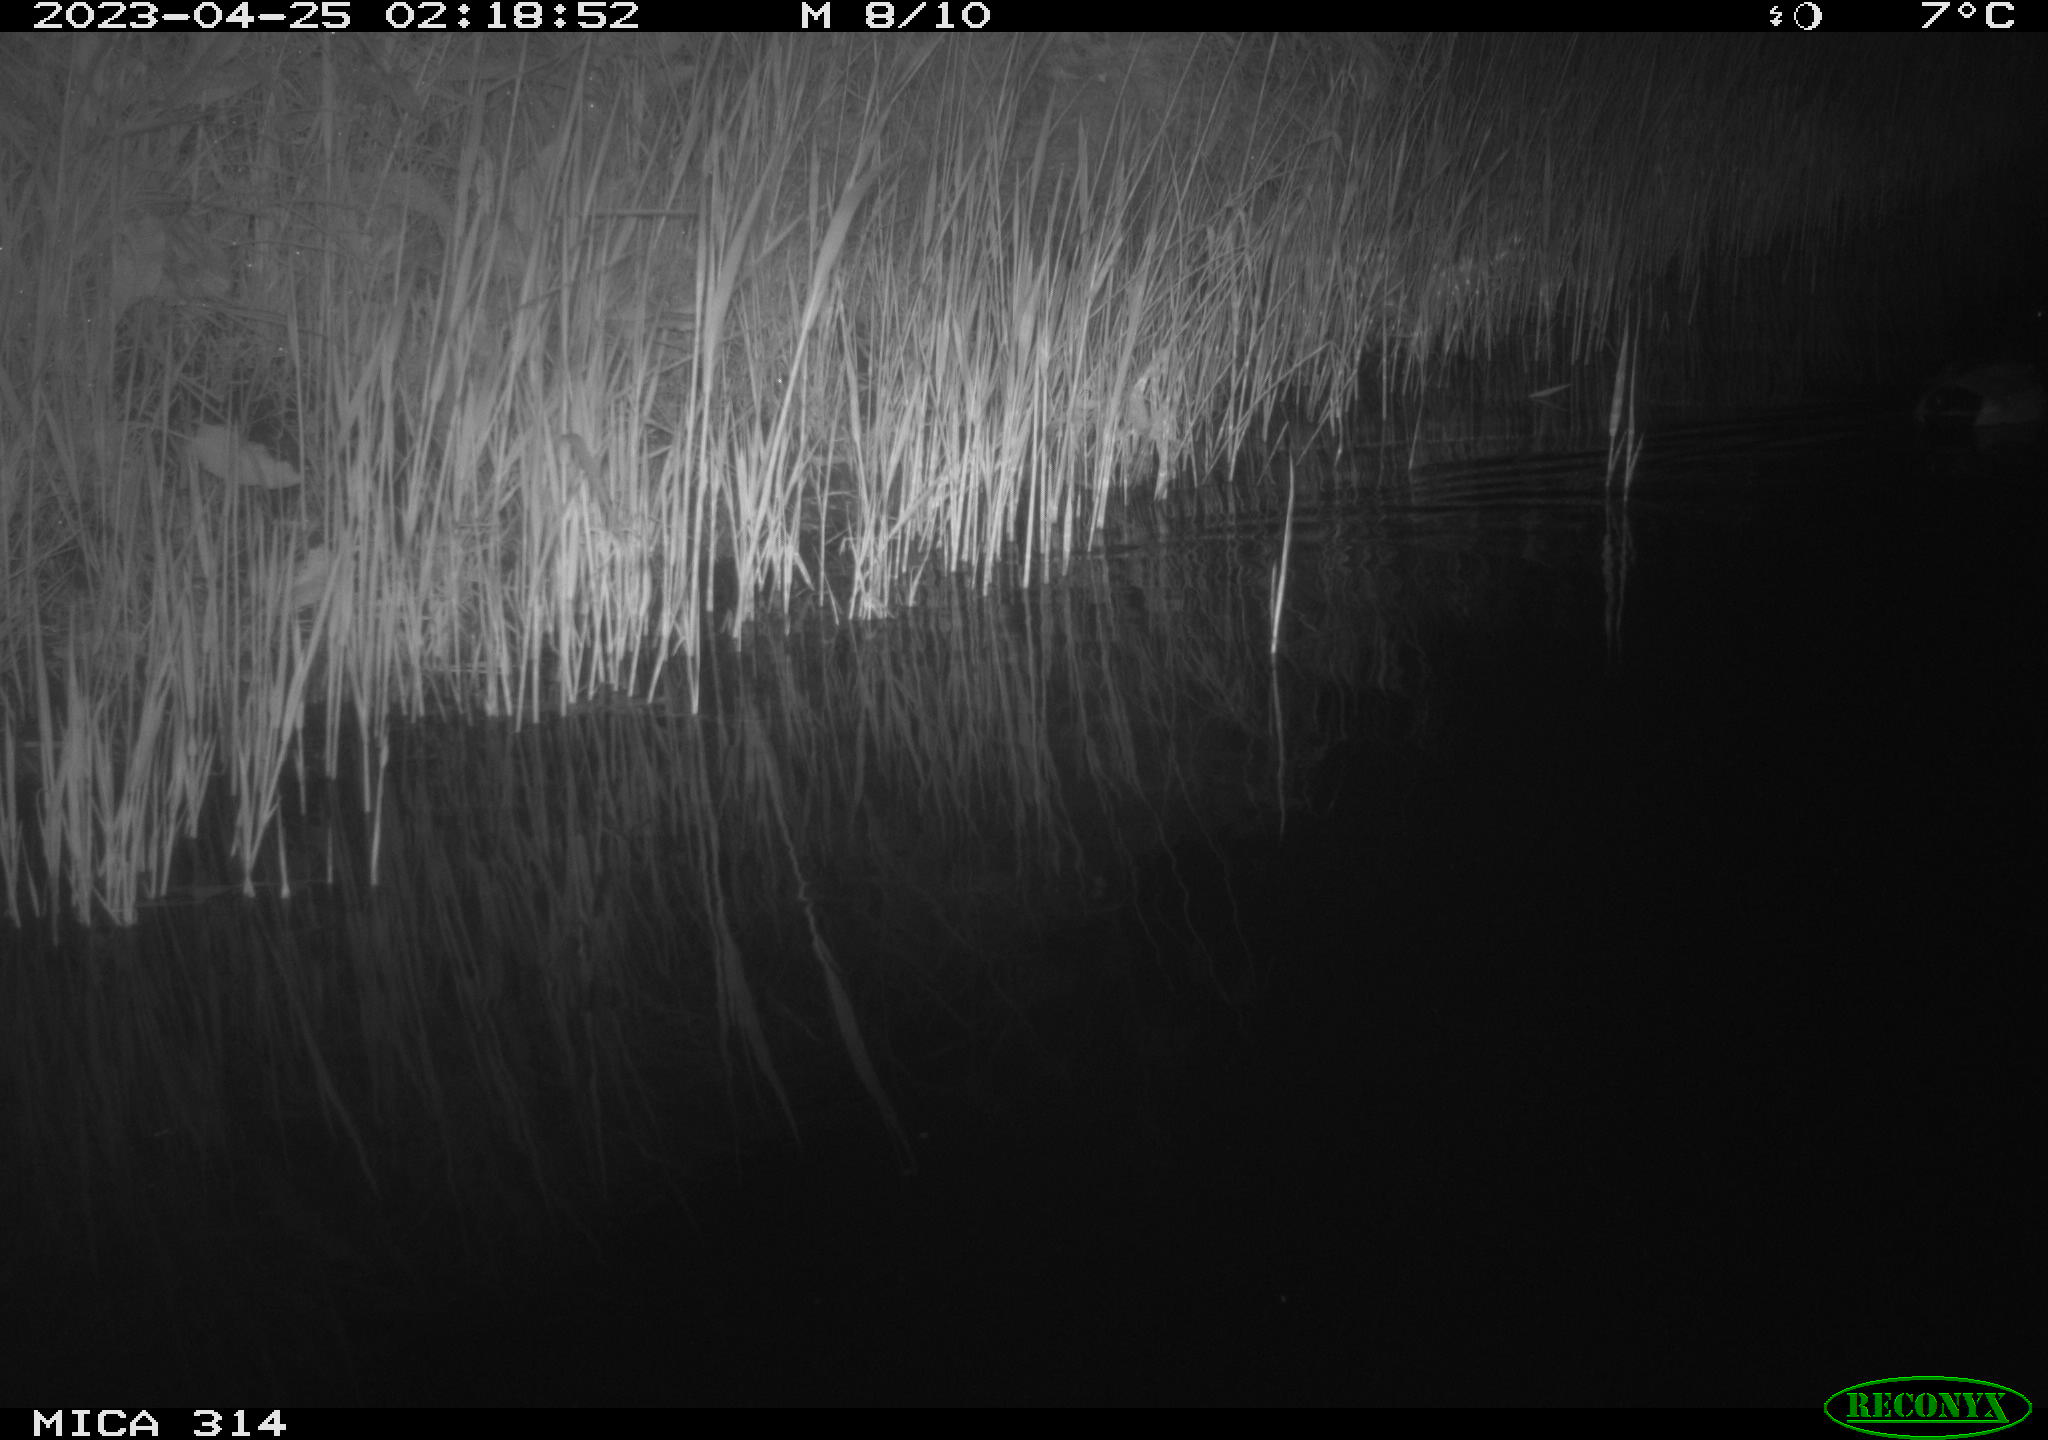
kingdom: Animalia
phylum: Chordata
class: Aves
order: Anseriformes
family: Anatidae
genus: Anas
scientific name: Anas
